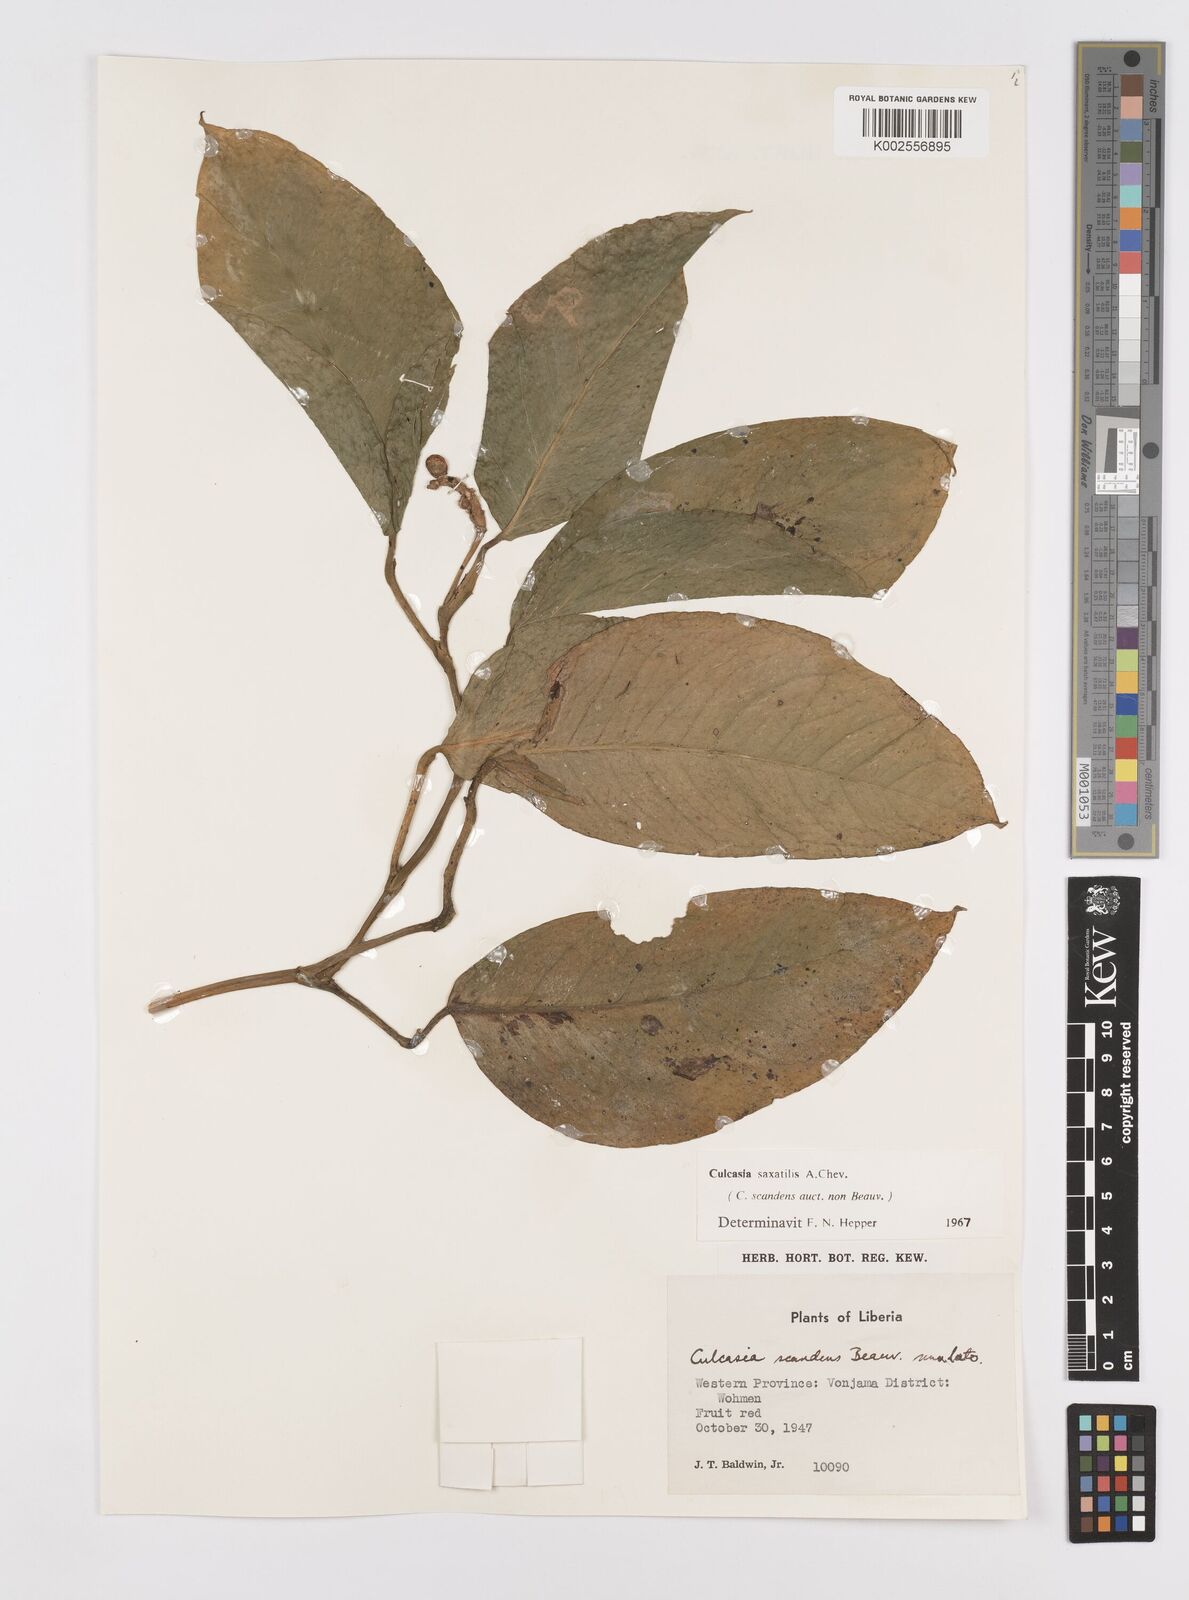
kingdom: Plantae
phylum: Tracheophyta
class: Liliopsida
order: Alismatales
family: Araceae
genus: Culcasia
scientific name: Culcasia scandens
